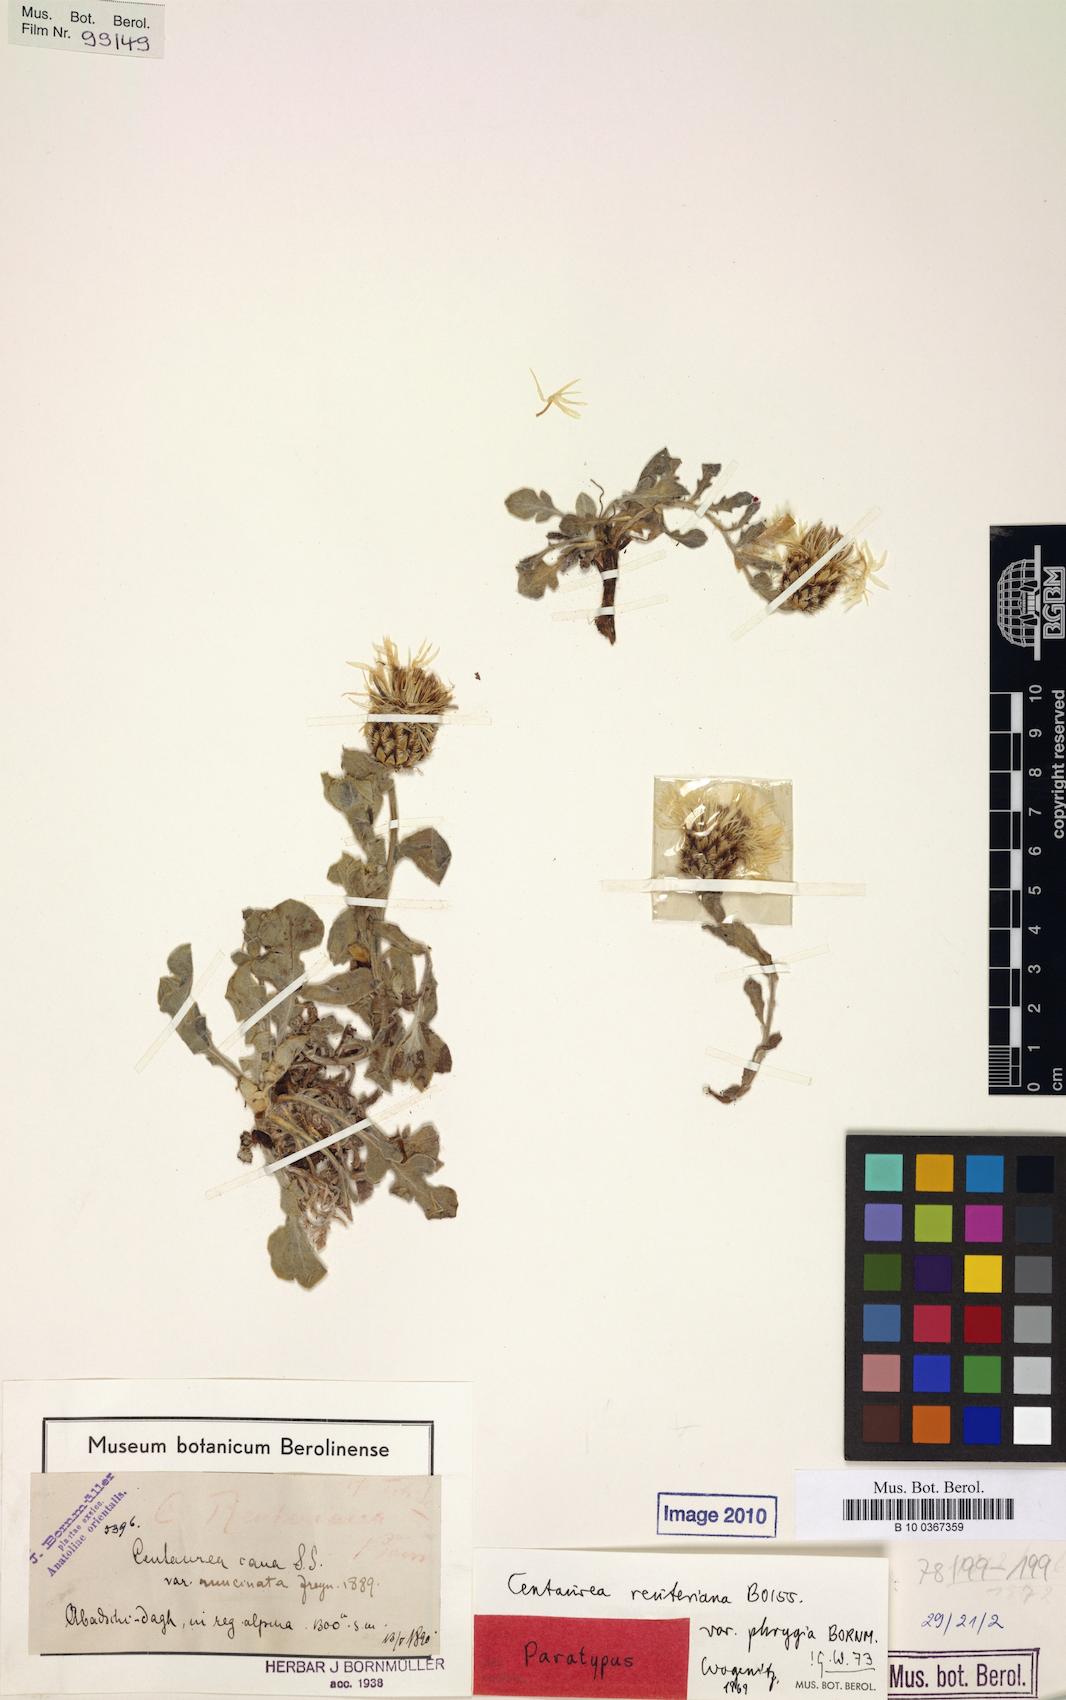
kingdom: Plantae
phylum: Tracheophyta
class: Magnoliopsida
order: Asterales
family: Asteraceae
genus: Centaurea
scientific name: Centaurea reuteriana
